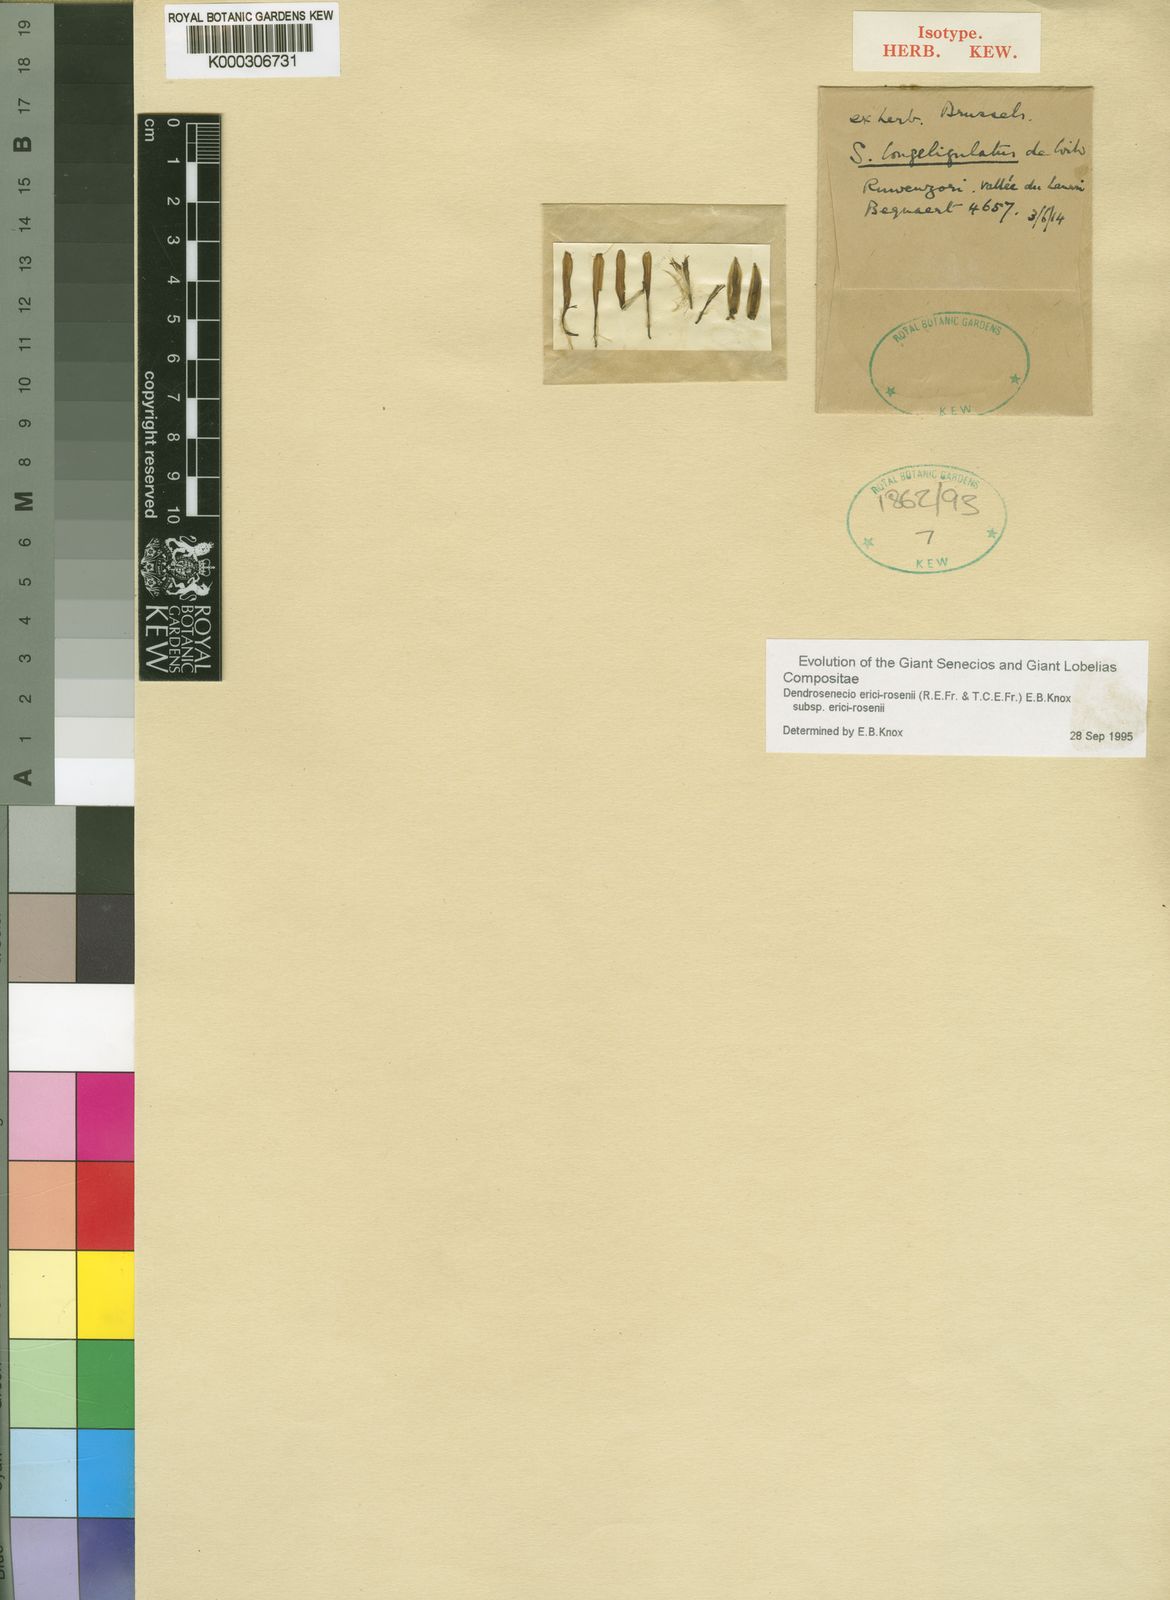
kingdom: Plantae
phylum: Tracheophyta
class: Magnoliopsida
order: Asterales
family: Asteraceae
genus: Dendrosenecio
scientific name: Dendrosenecio erici-rosenii
